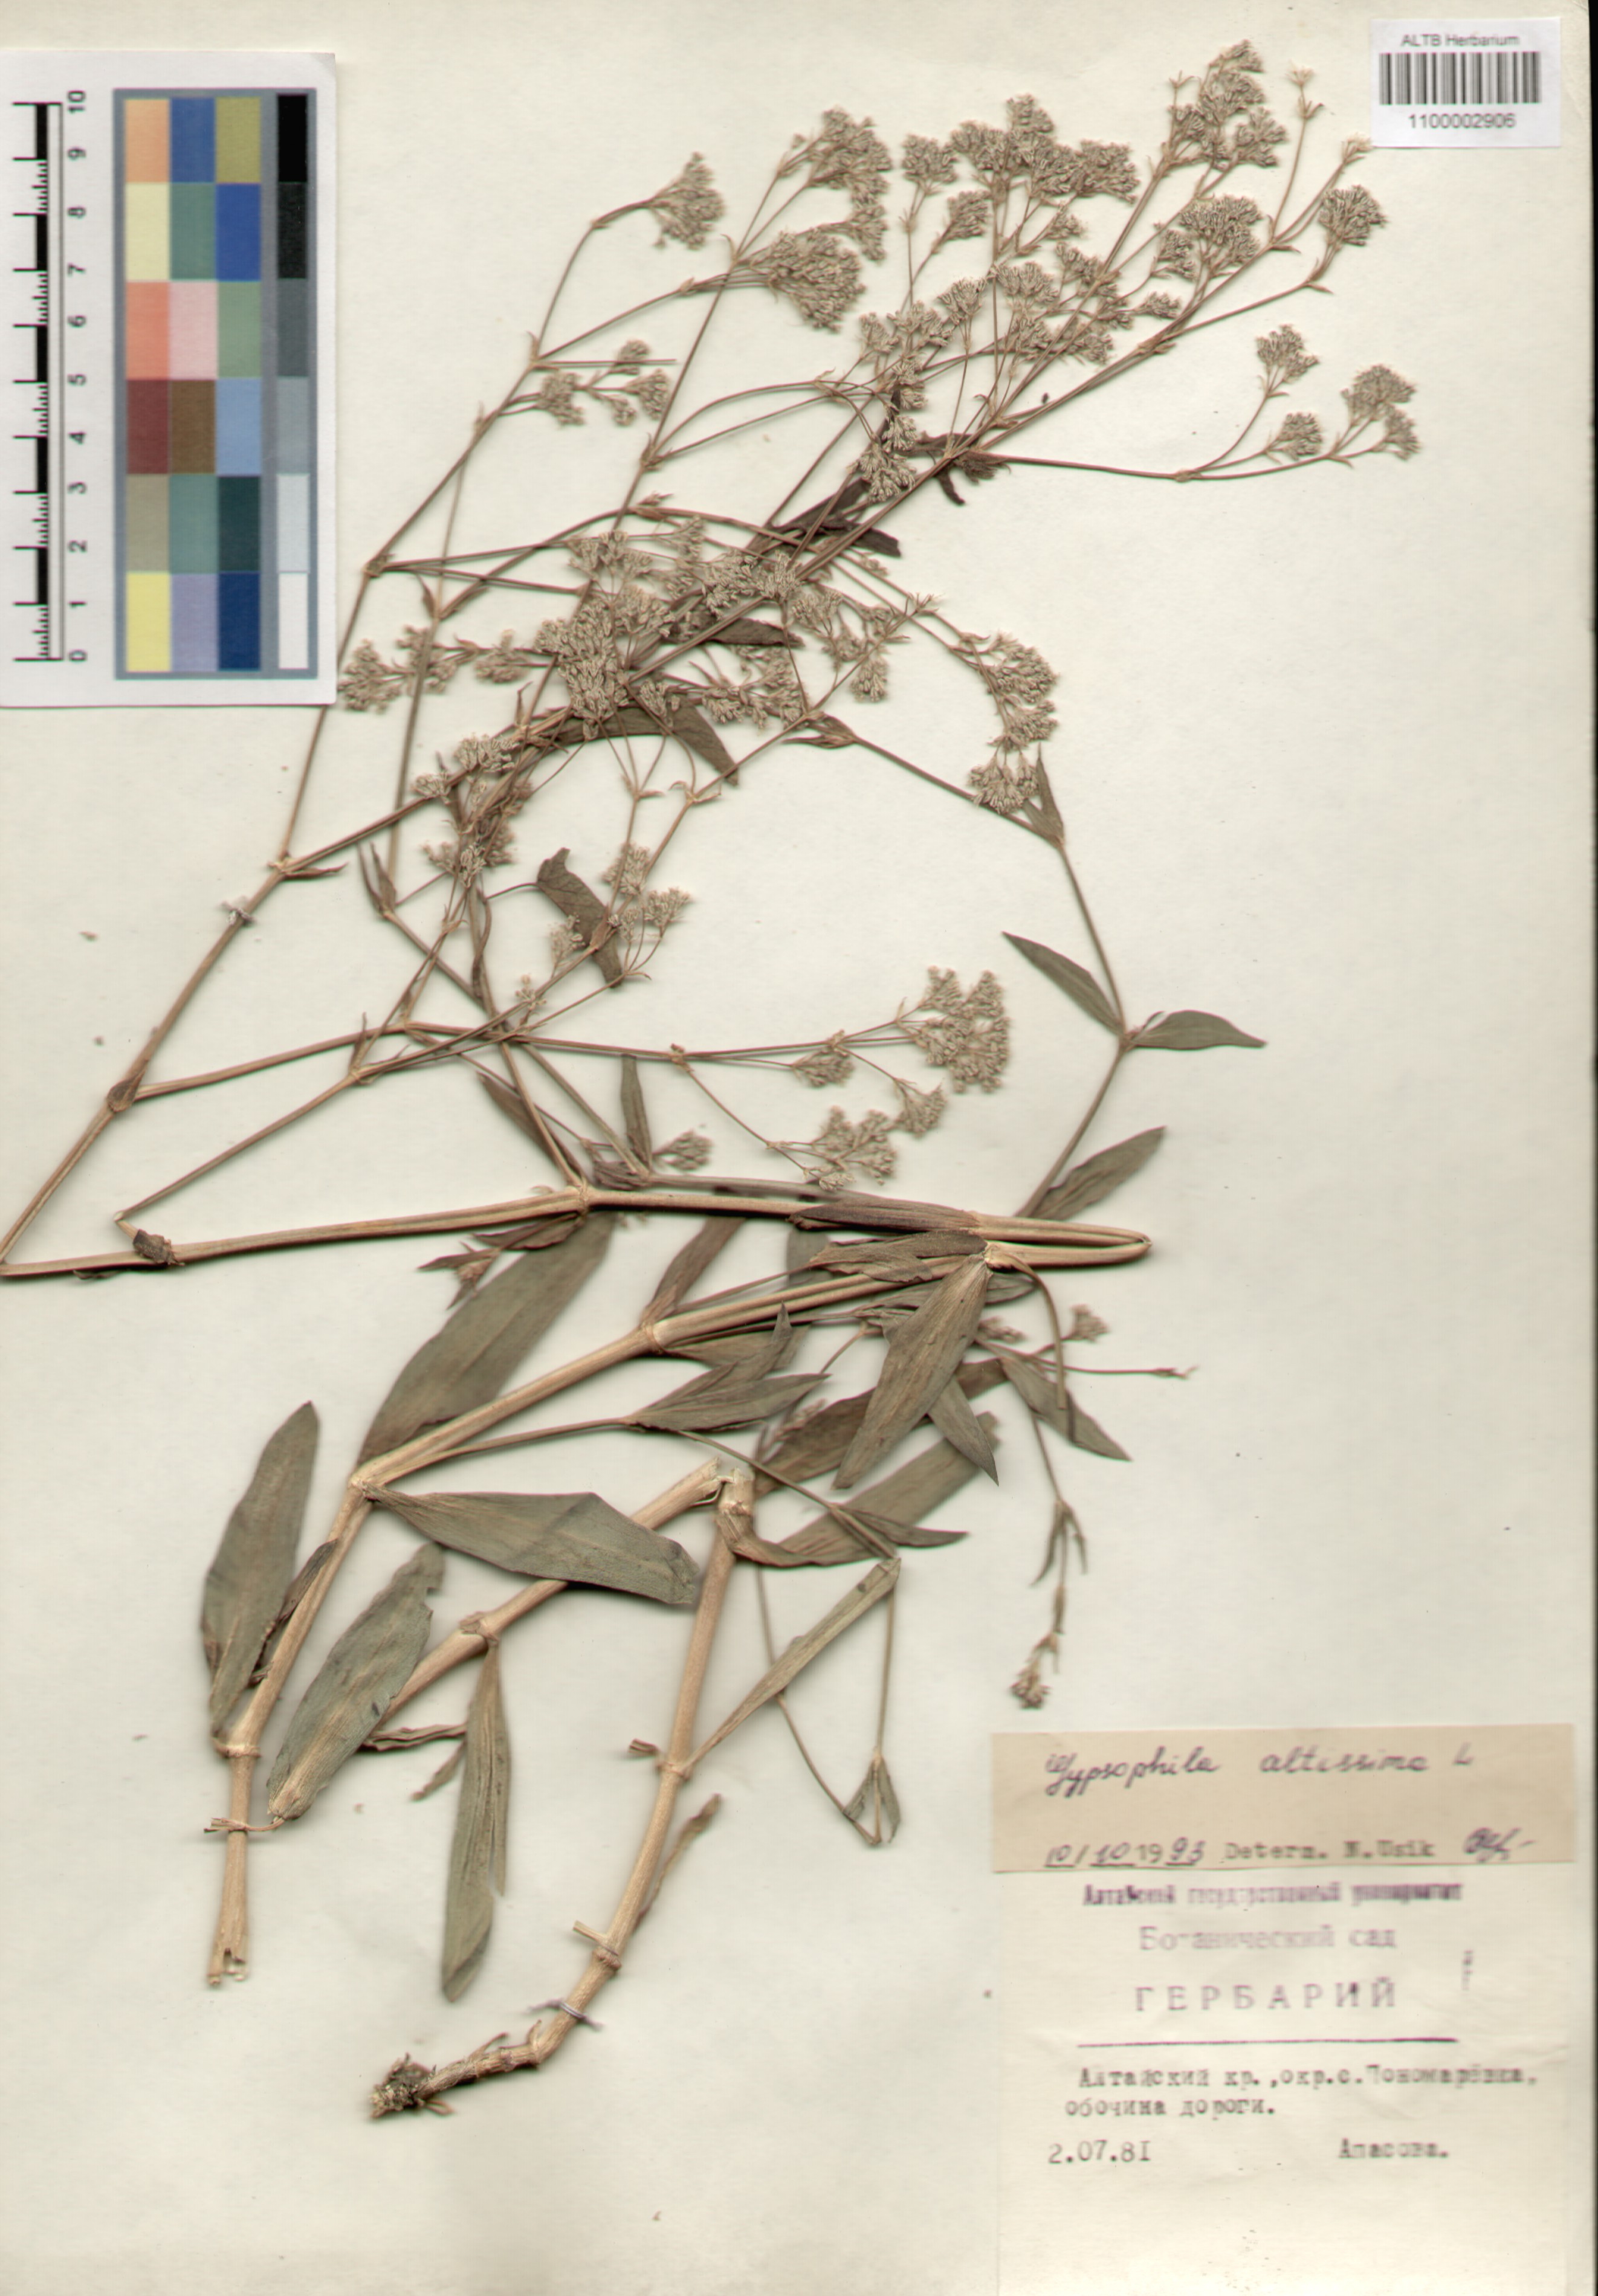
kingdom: Plantae
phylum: Tracheophyta
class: Magnoliopsida
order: Caryophyllales
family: Caryophyllaceae
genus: Gypsophila
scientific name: Gypsophila altissima
